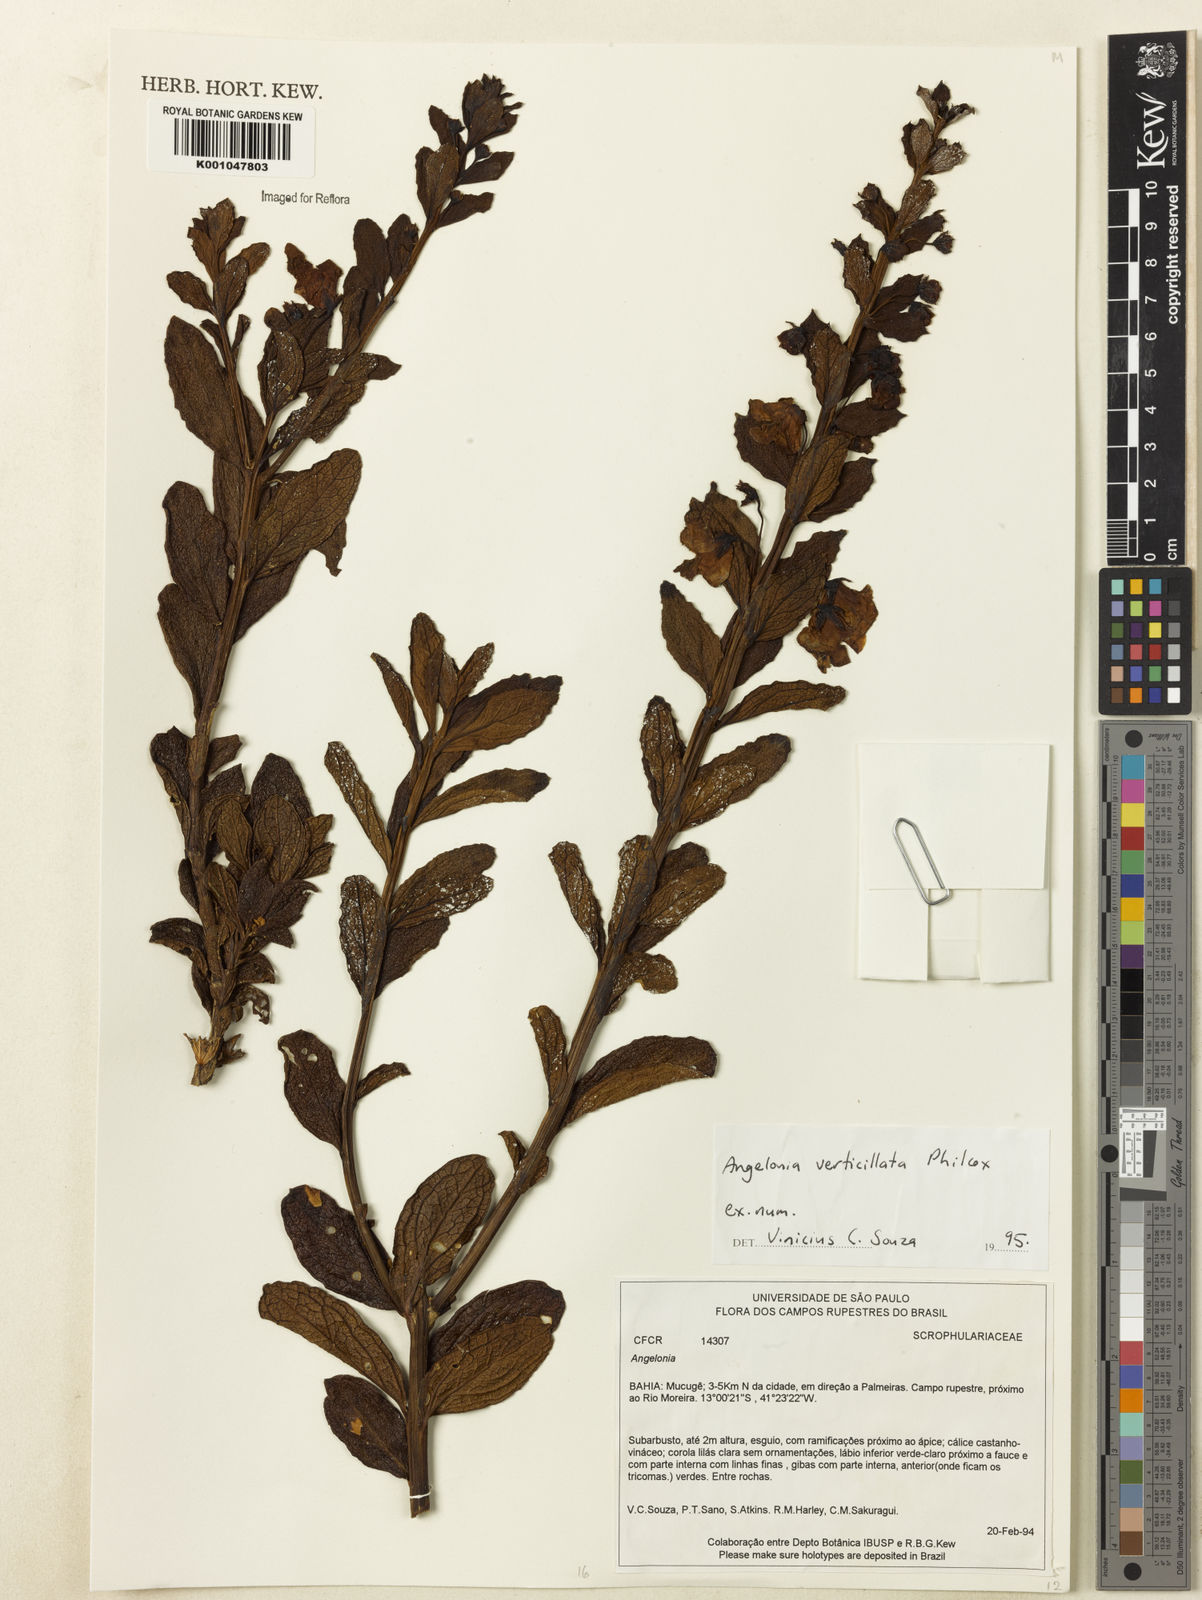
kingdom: Plantae
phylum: Tracheophyta
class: Magnoliopsida
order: Lamiales
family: Plantaginaceae
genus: Angelonia
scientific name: Angelonia verticillata
